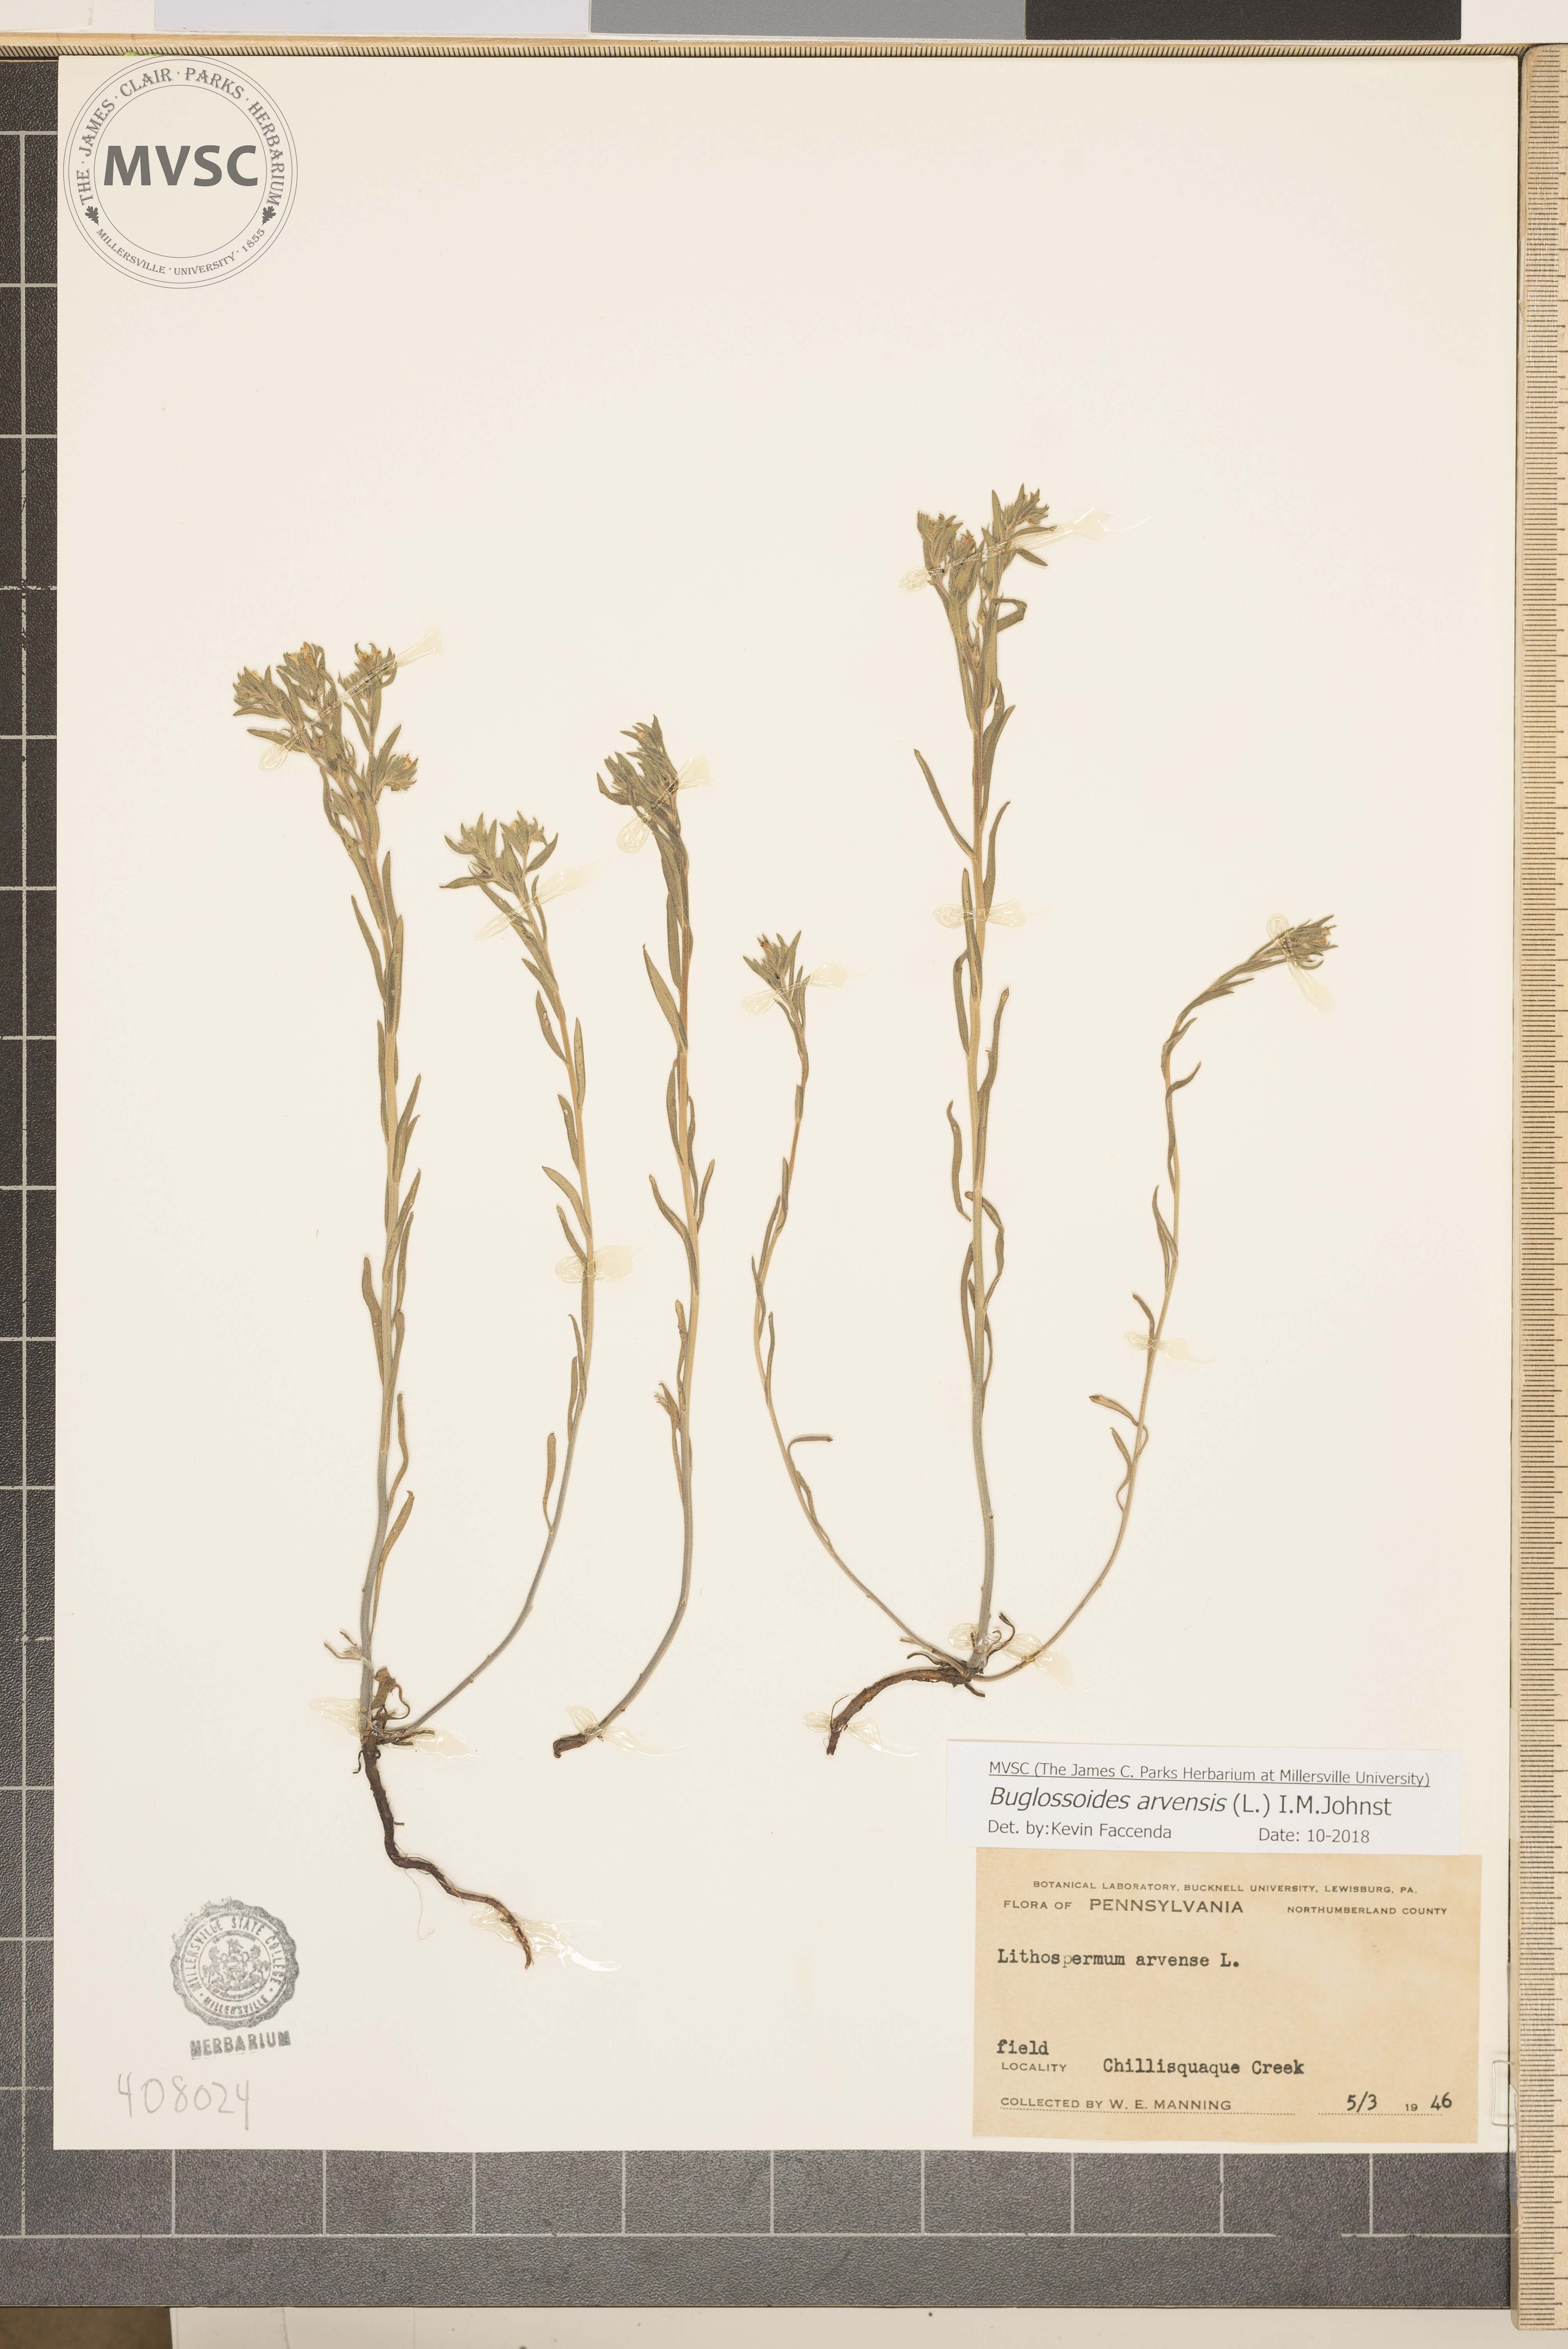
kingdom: Plantae
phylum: Tracheophyta
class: Magnoliopsida
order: Boraginales
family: Boraginaceae
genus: Buglossoides
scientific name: Buglossoides arvensis
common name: Corn gromwell
